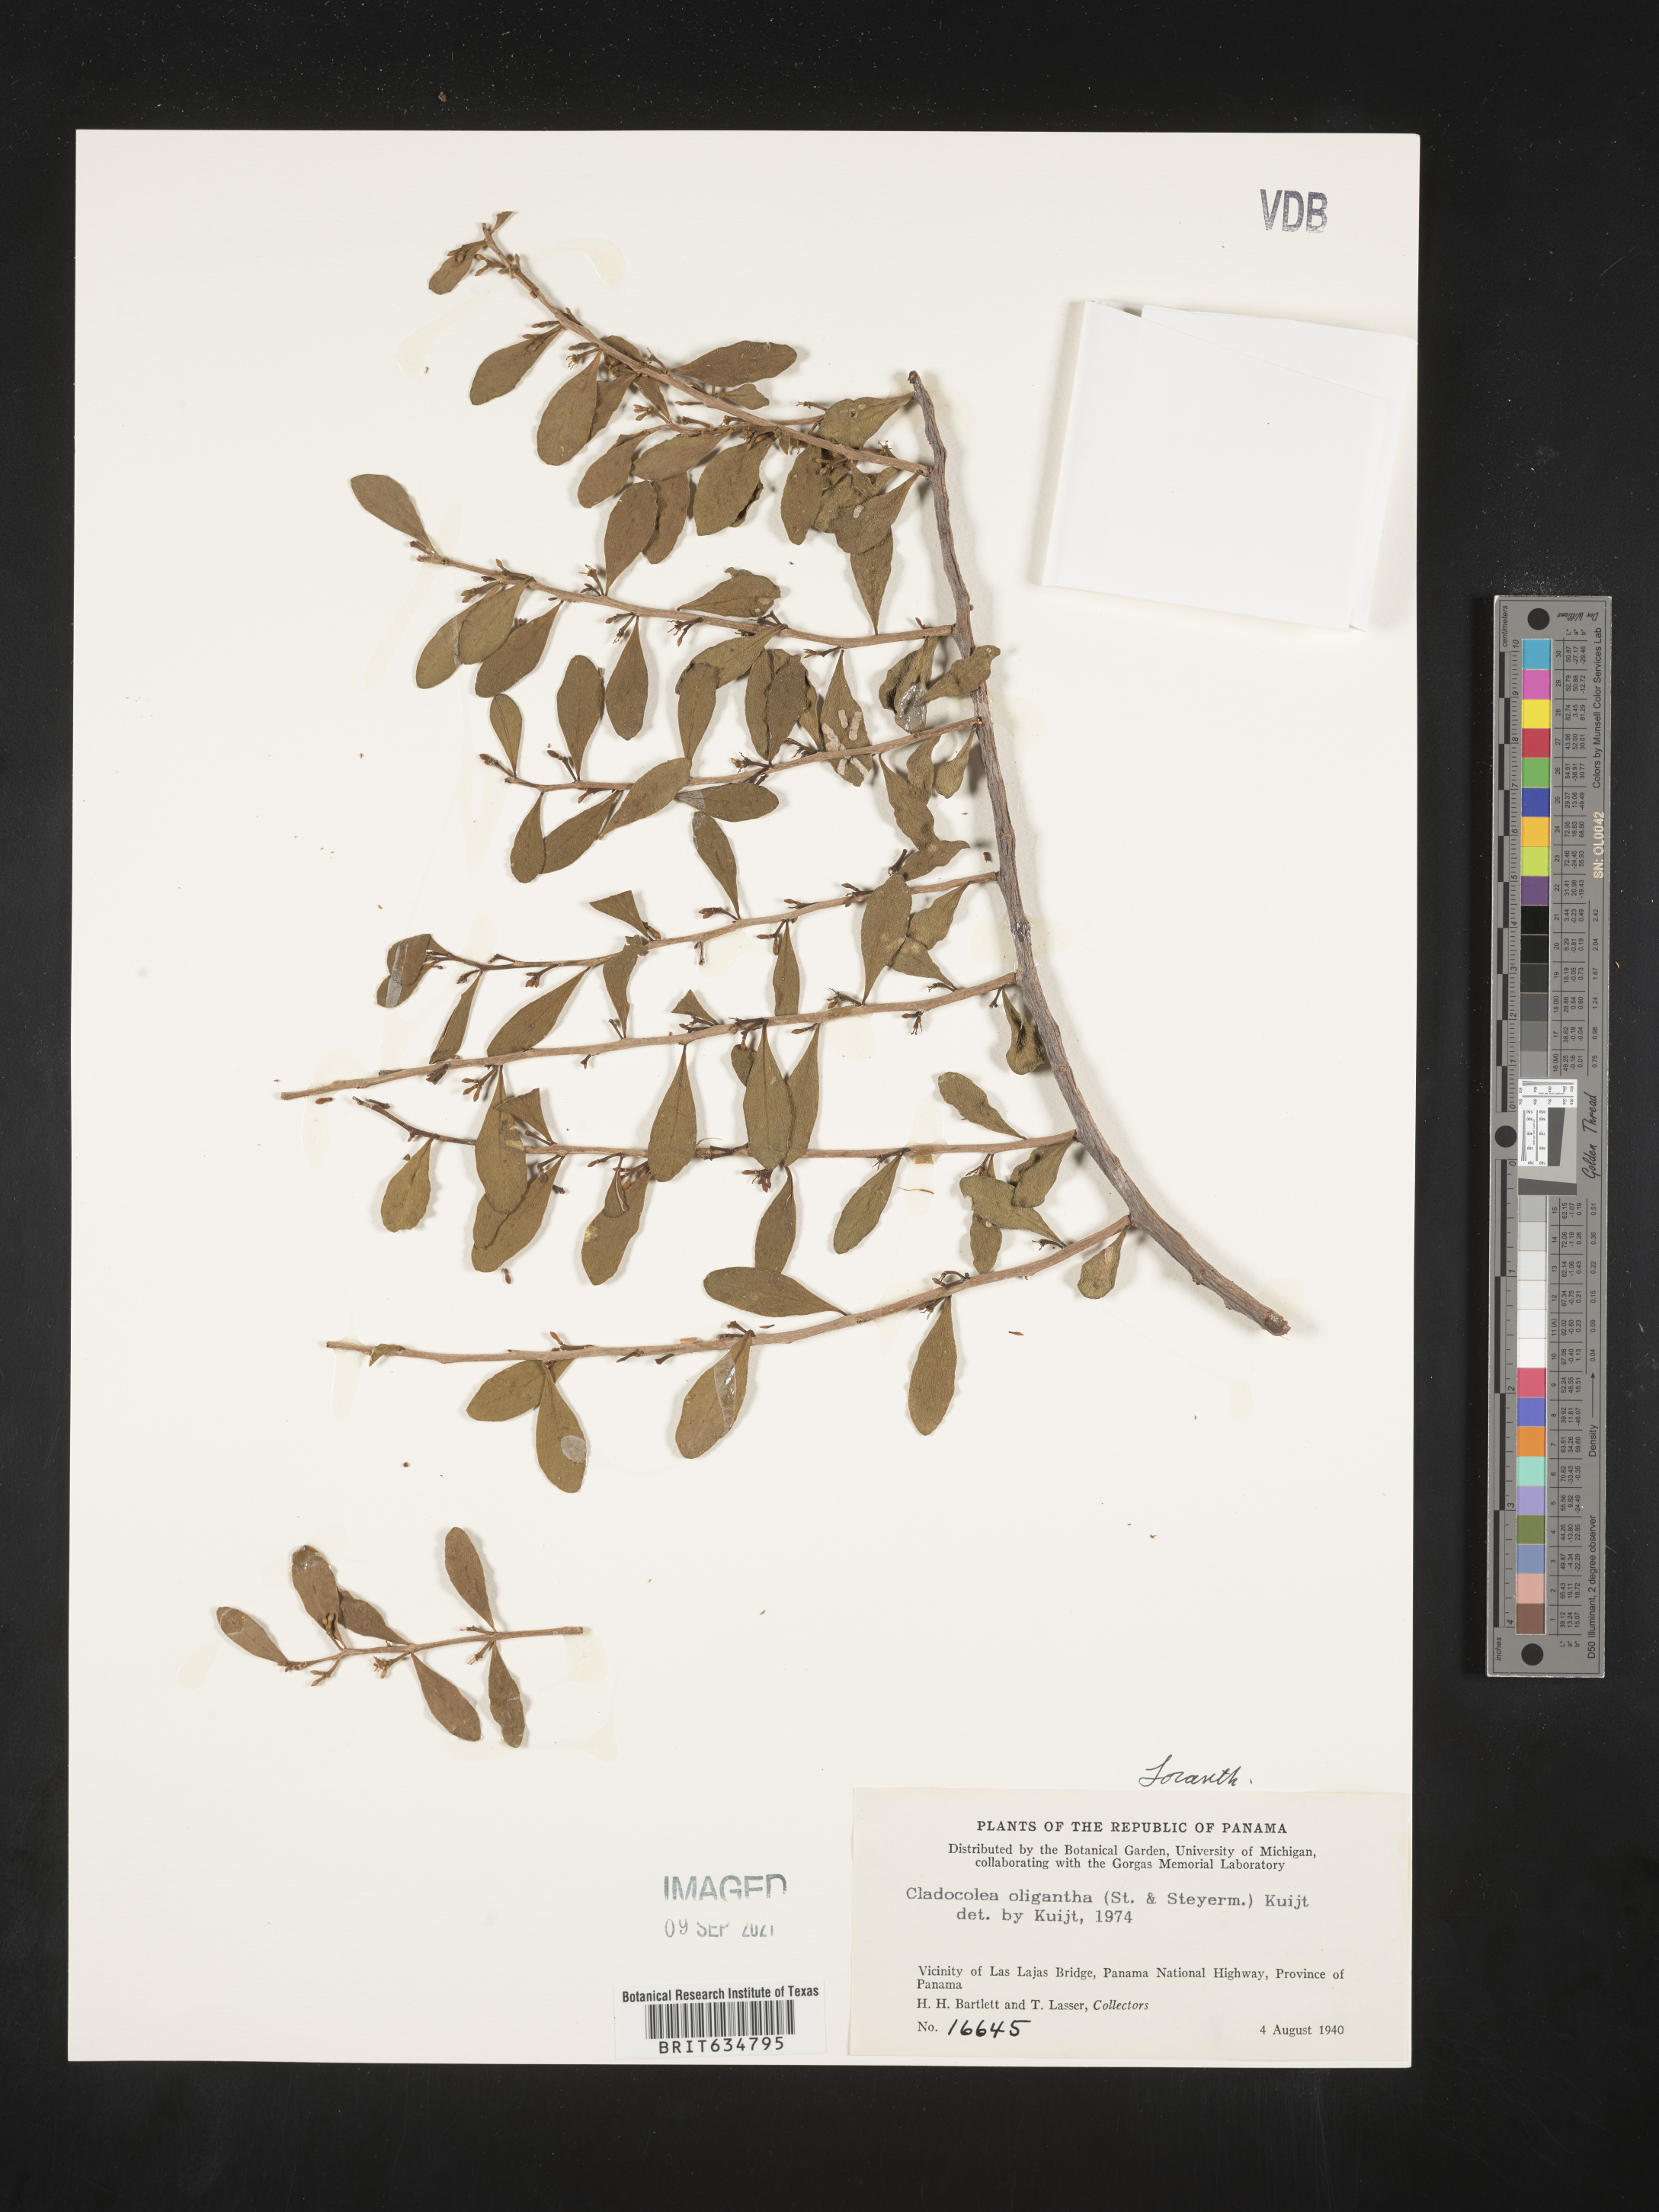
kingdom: Plantae
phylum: Tracheophyta
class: Magnoliopsida
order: Santalales
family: Loranthaceae
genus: Cladocolea
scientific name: Cladocolea
